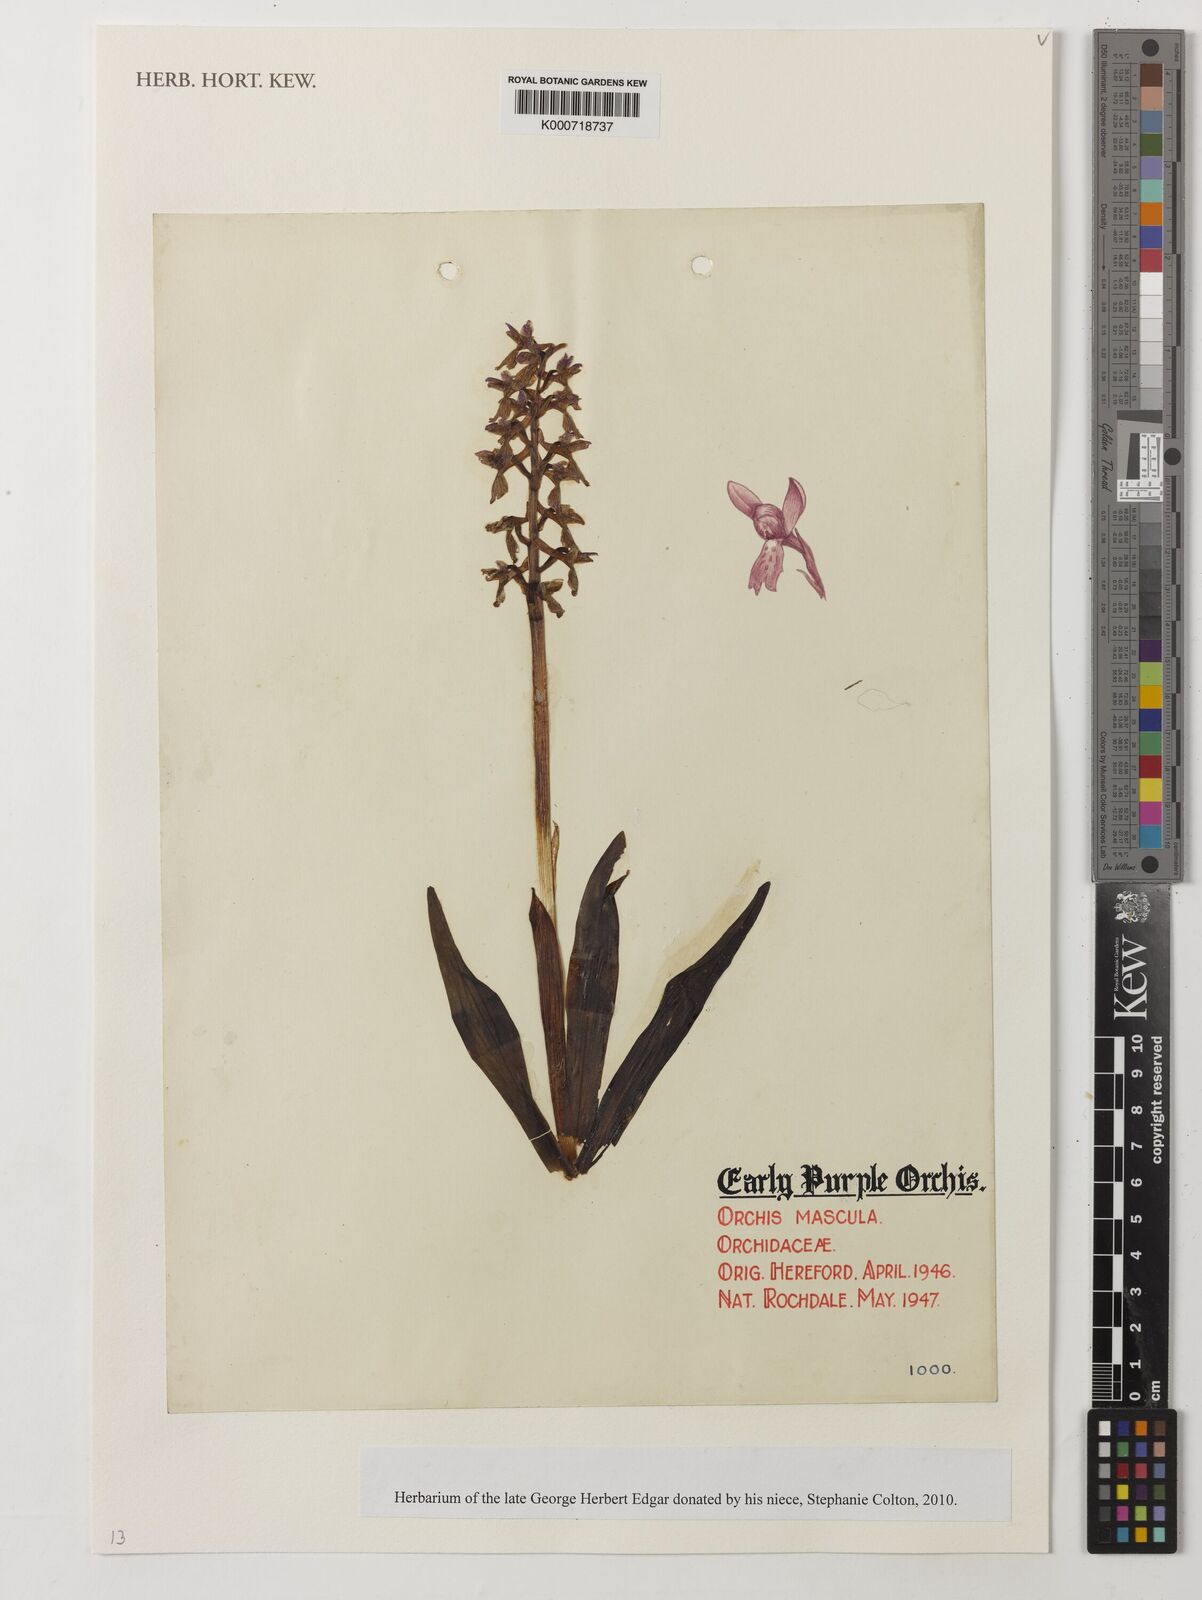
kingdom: Plantae
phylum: Tracheophyta
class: Liliopsida
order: Asparagales
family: Orchidaceae
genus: Orchis
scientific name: Orchis mascula
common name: Early-purple orchid
